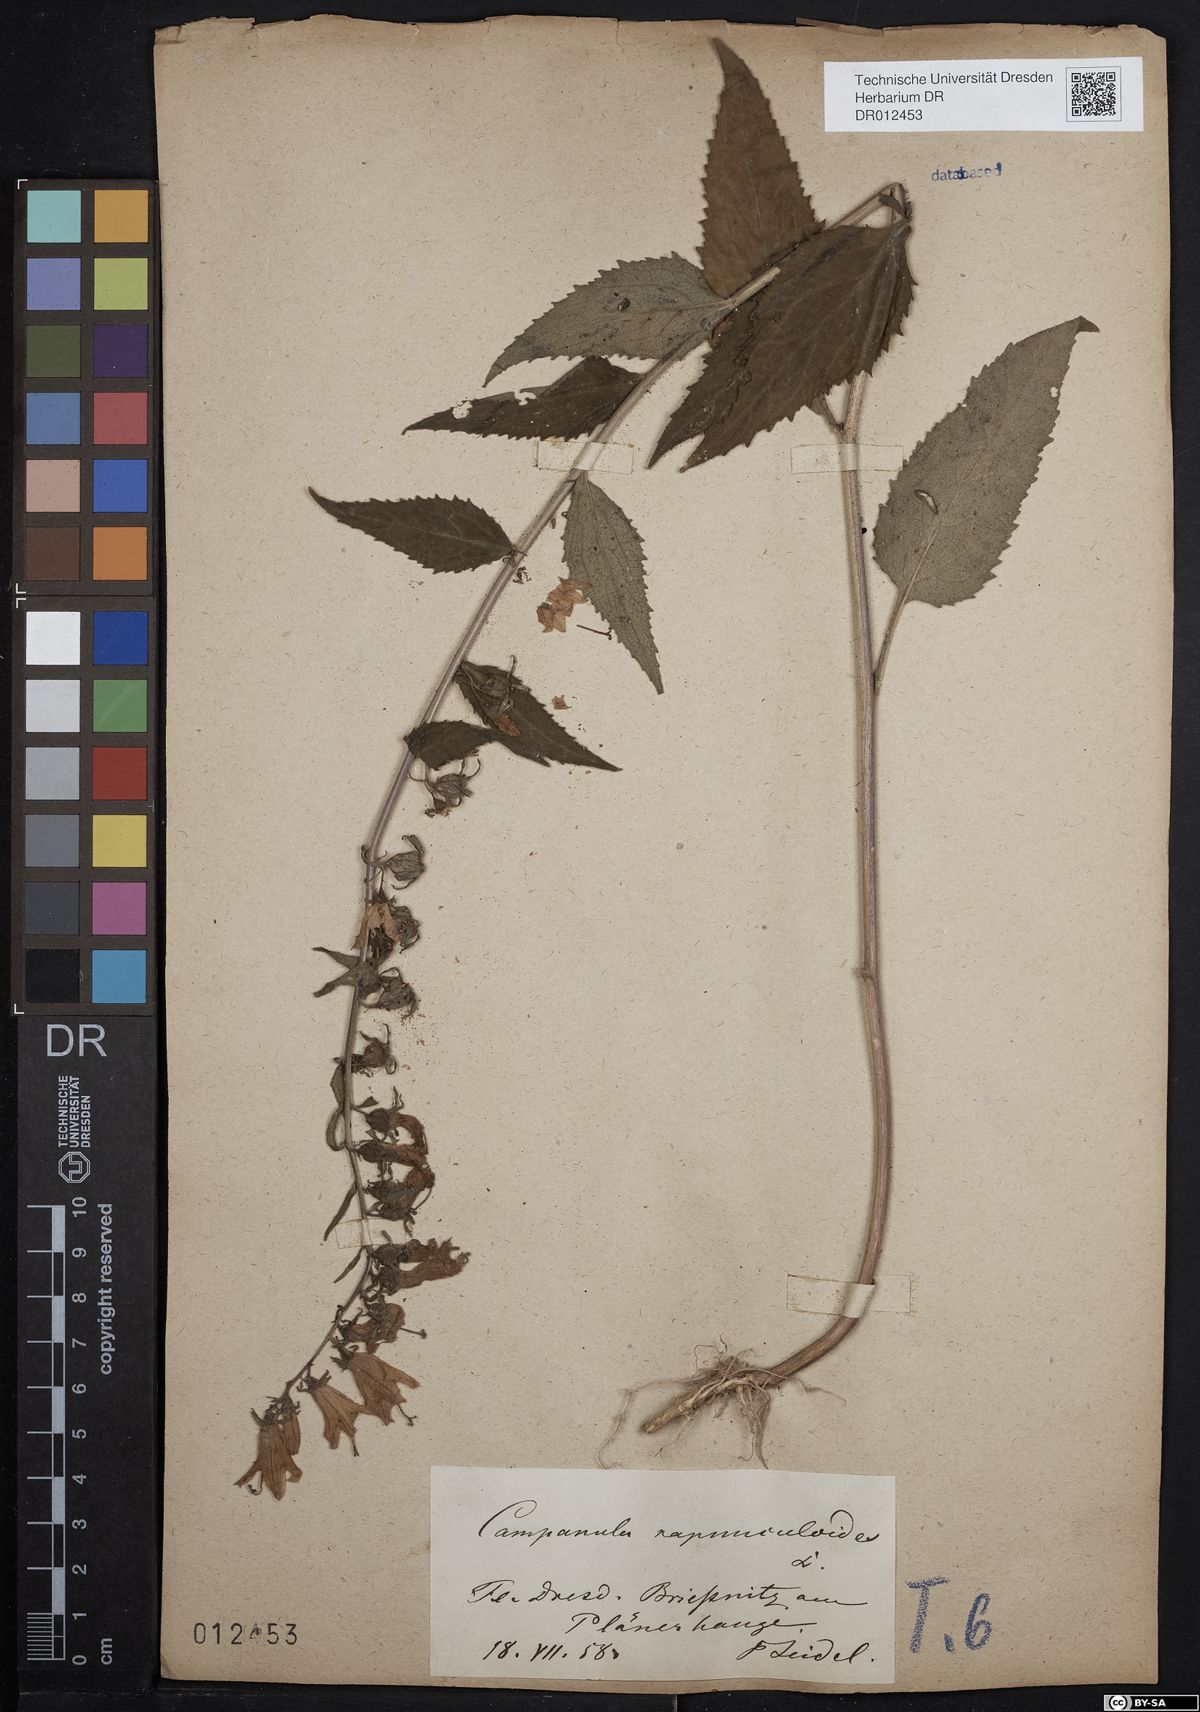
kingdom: Plantae
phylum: Tracheophyta
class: Magnoliopsida
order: Asterales
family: Campanulaceae
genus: Campanula
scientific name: Campanula rapunculoides
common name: Creeping bellflower
